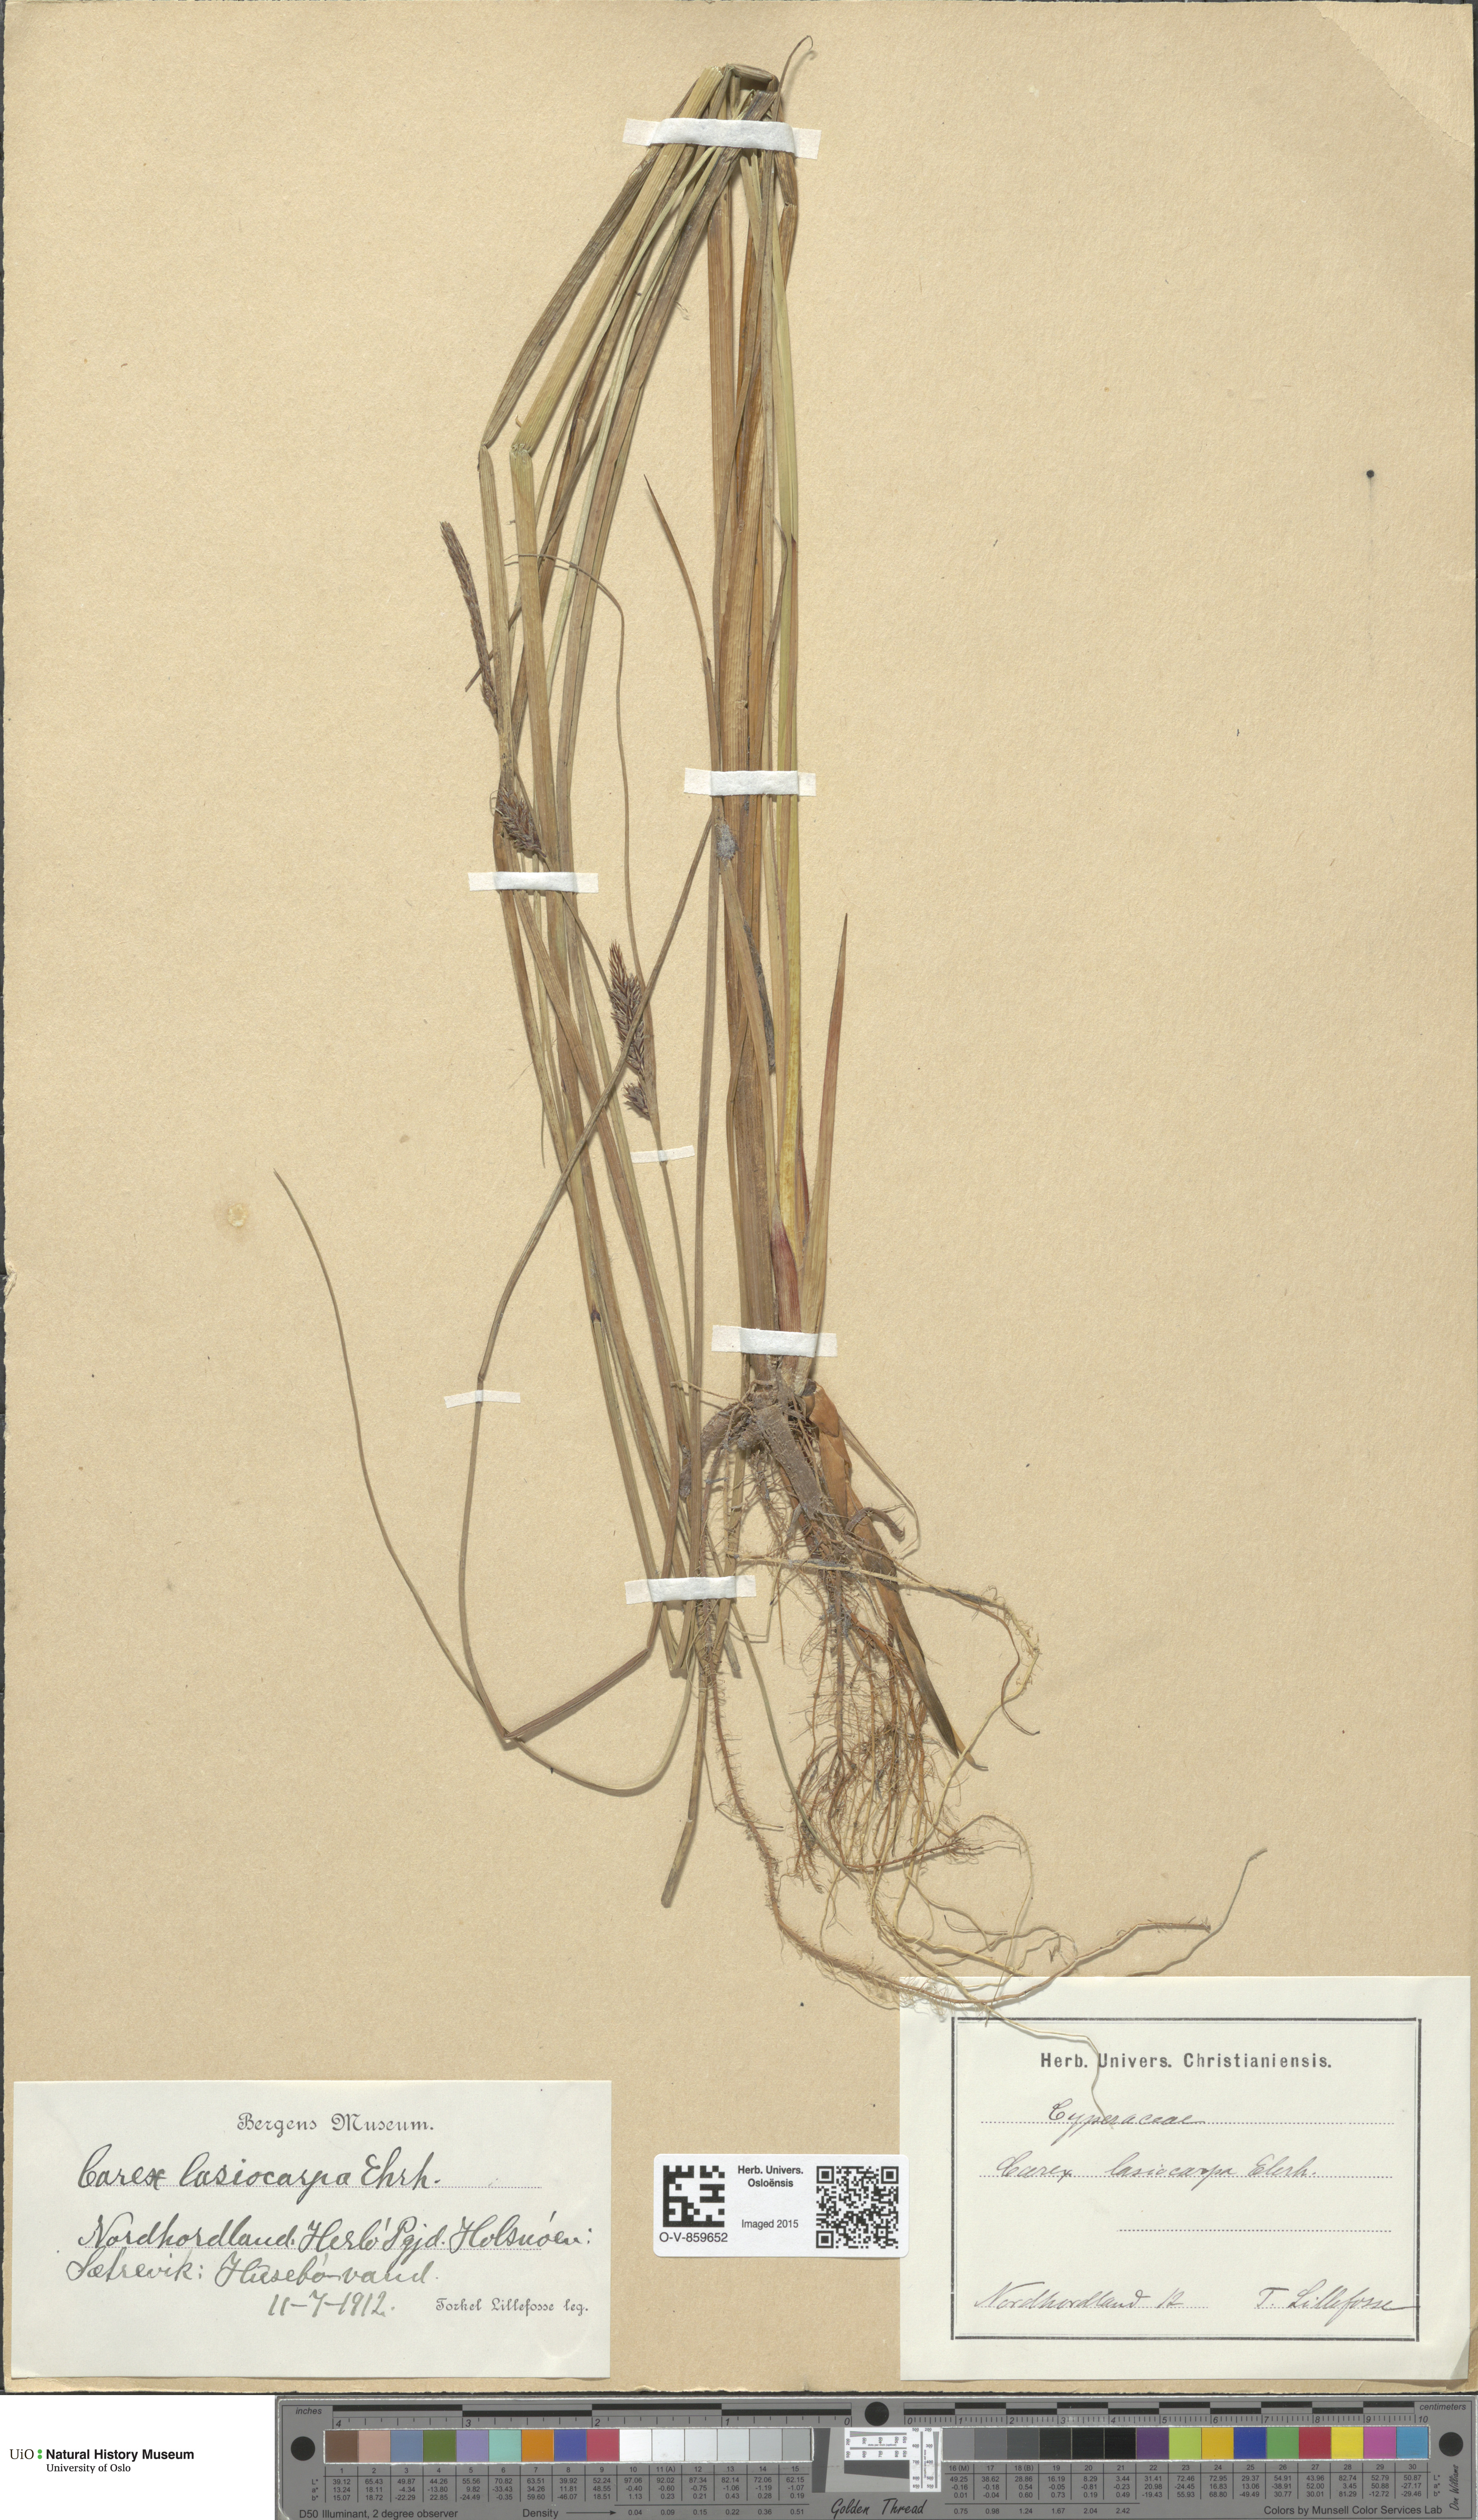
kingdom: Plantae
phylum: Tracheophyta
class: Liliopsida
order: Poales
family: Cyperaceae
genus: Carex
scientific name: Carex lasiocarpa
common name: Slender sedge
